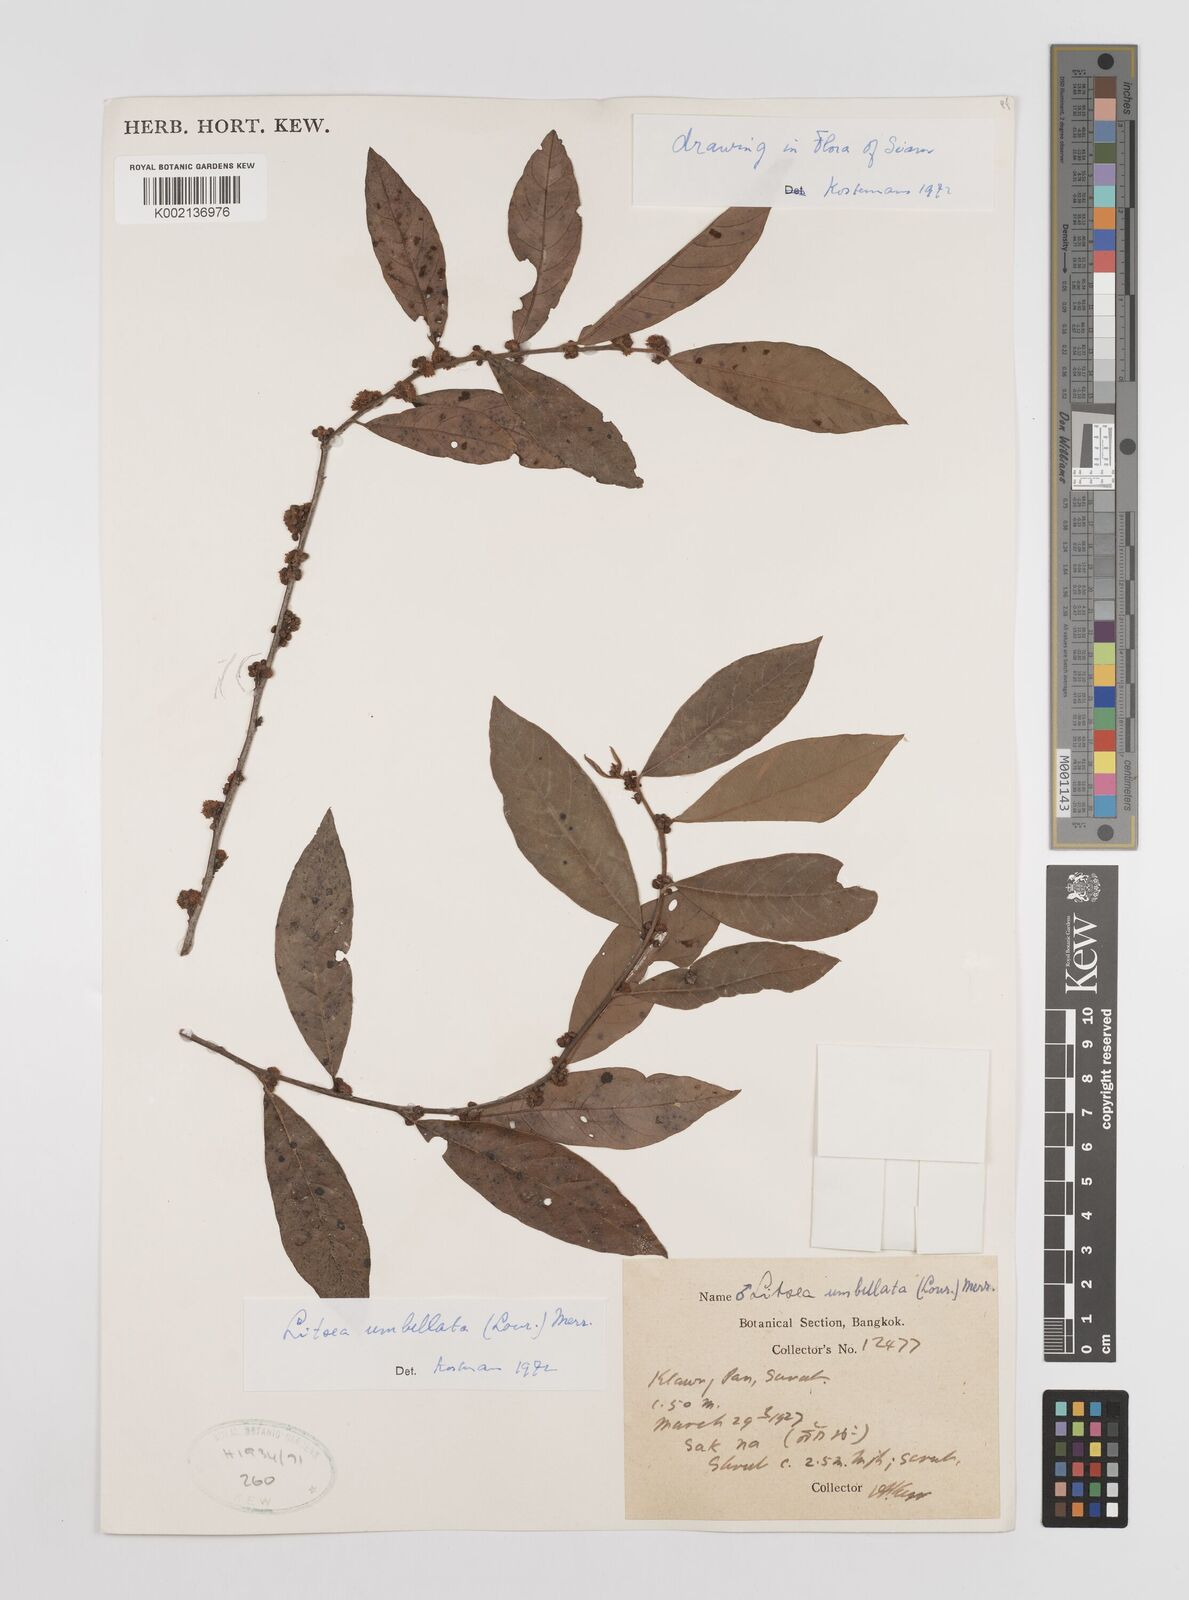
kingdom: Plantae
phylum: Tracheophyta
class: Magnoliopsida
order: Laurales
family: Lauraceae
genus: Litsea
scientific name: Litsea umbellata
